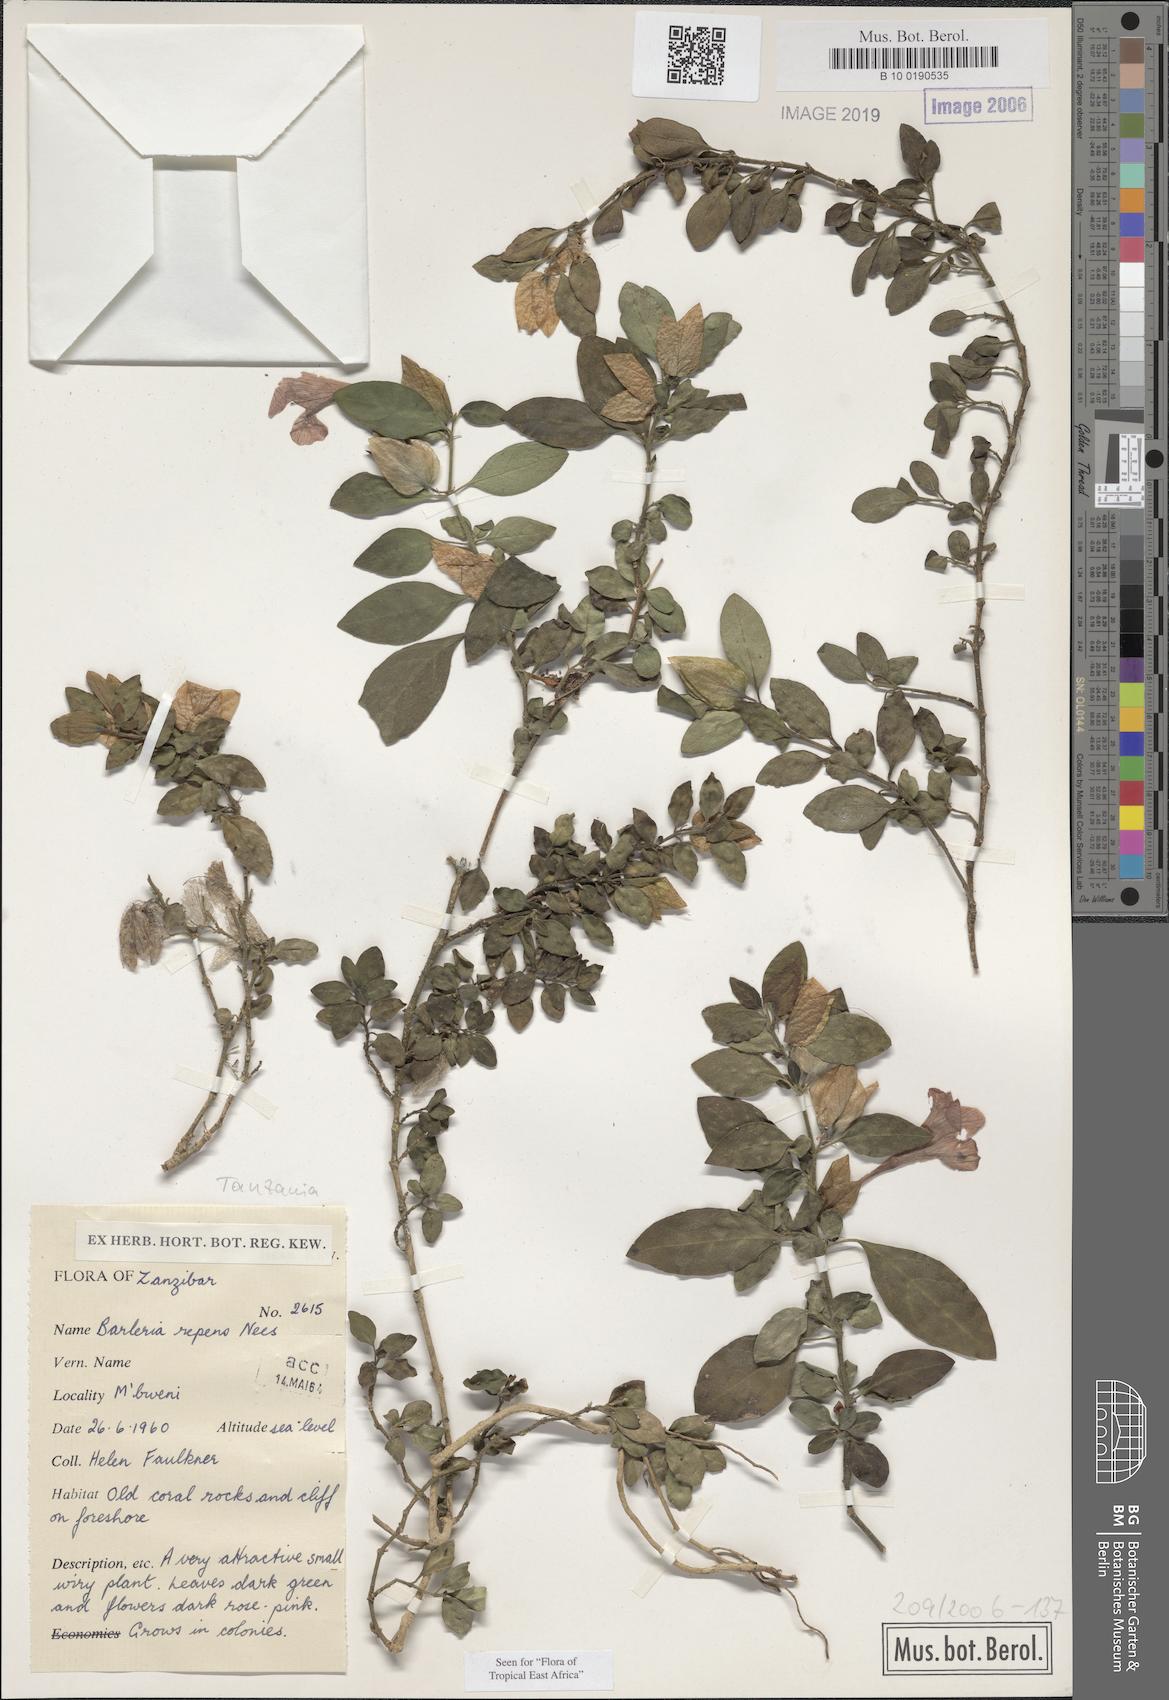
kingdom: Plantae
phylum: Tracheophyta
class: Magnoliopsida
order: Lamiales
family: Acanthaceae
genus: Barleria
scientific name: Barleria repens
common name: Pink-ruellia
